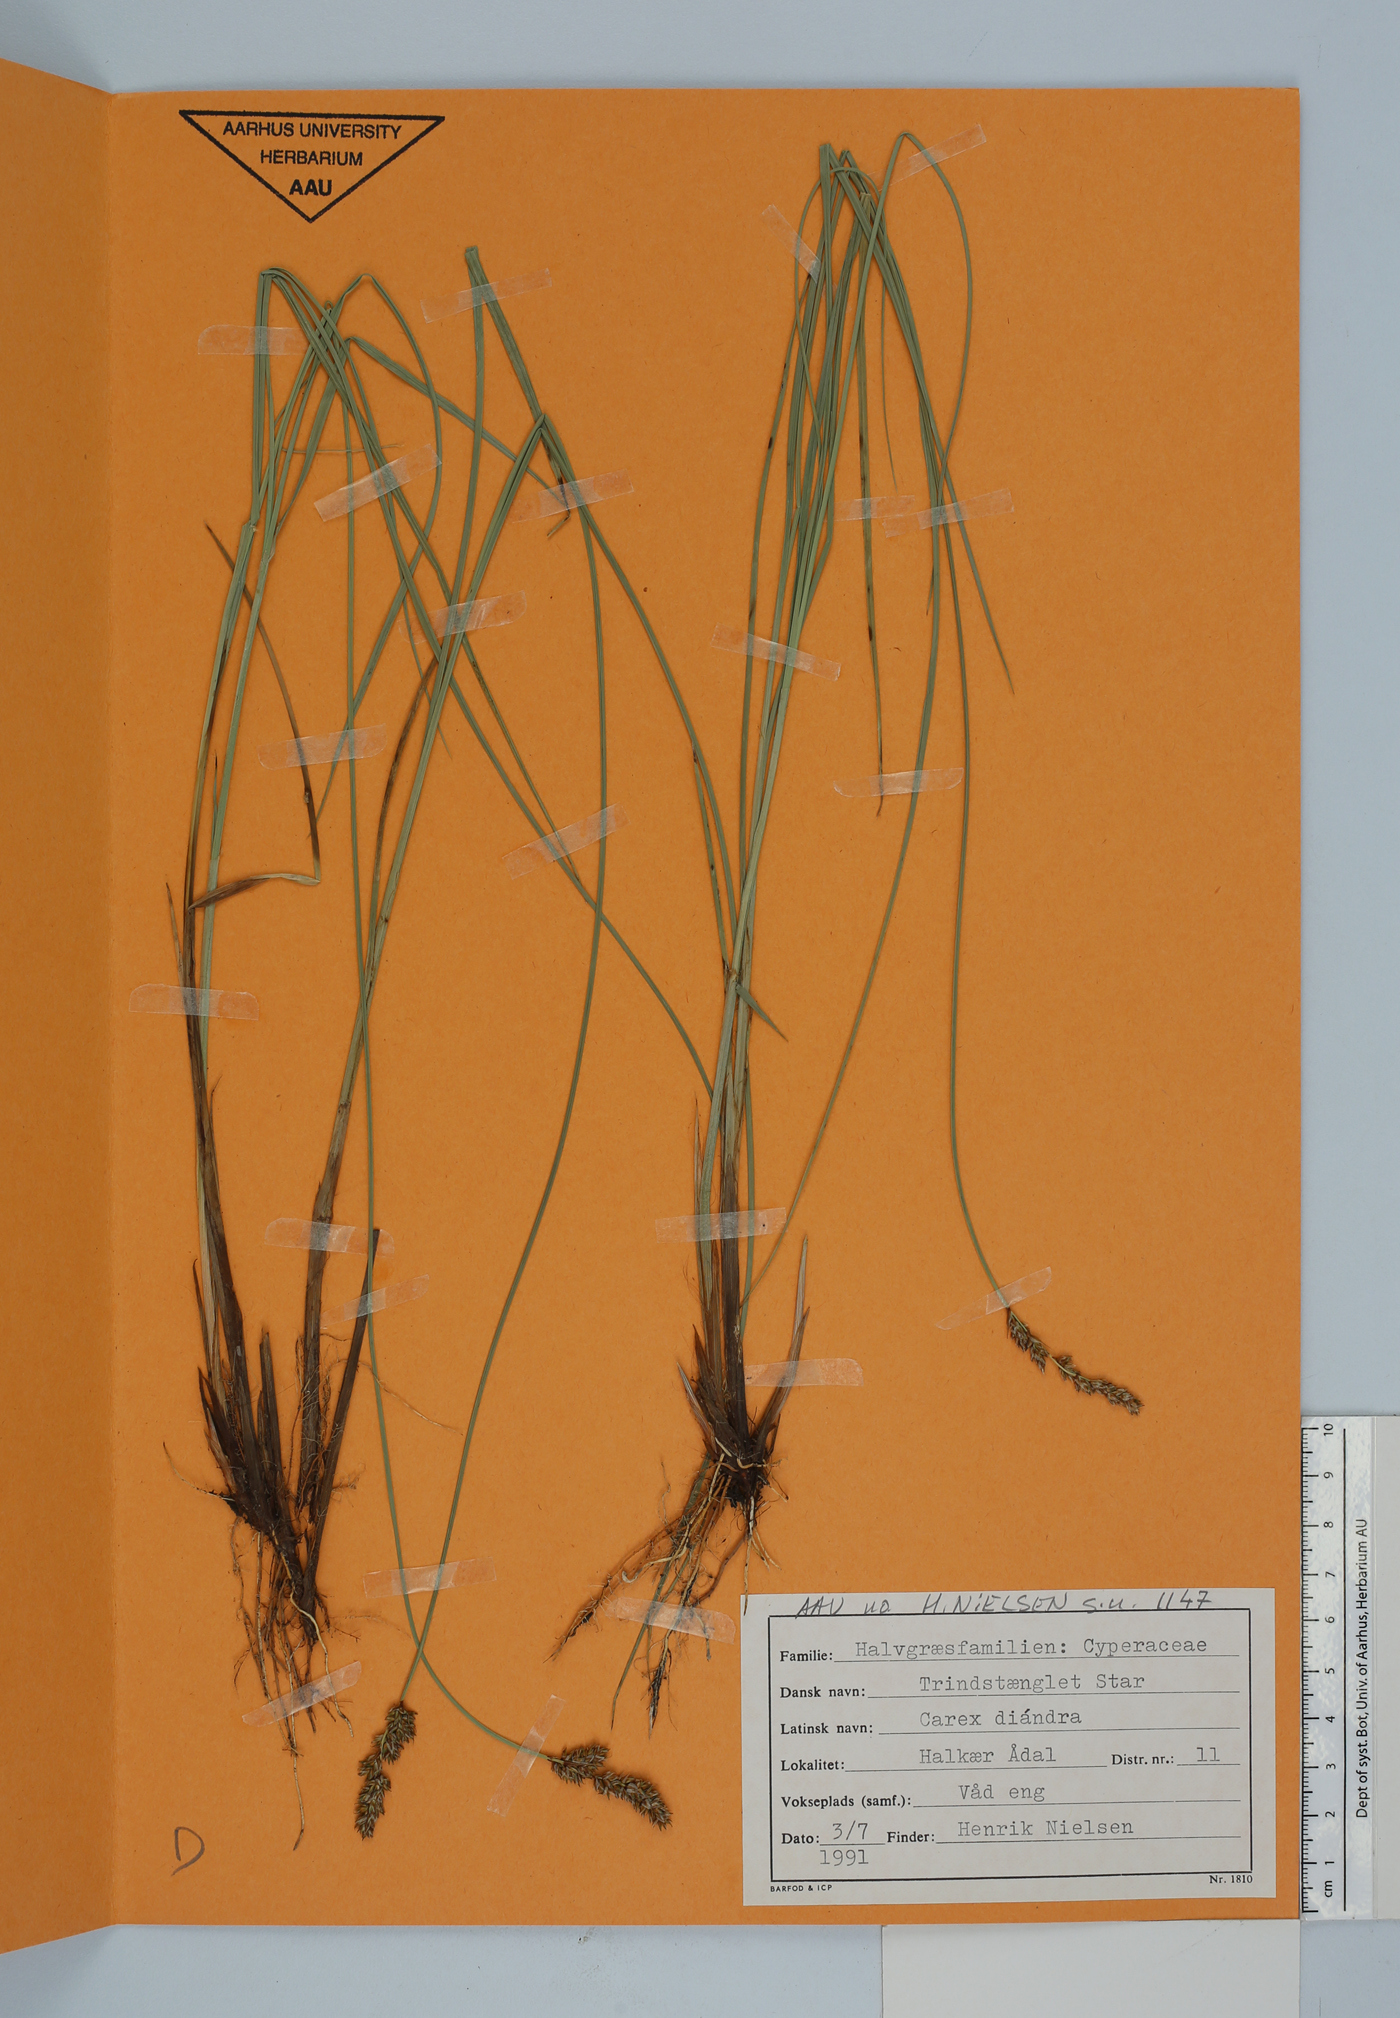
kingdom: Plantae
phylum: Tracheophyta
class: Liliopsida
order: Poales
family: Cyperaceae
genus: Carex
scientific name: Carex diandra
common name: Lesser tussock-sedge
